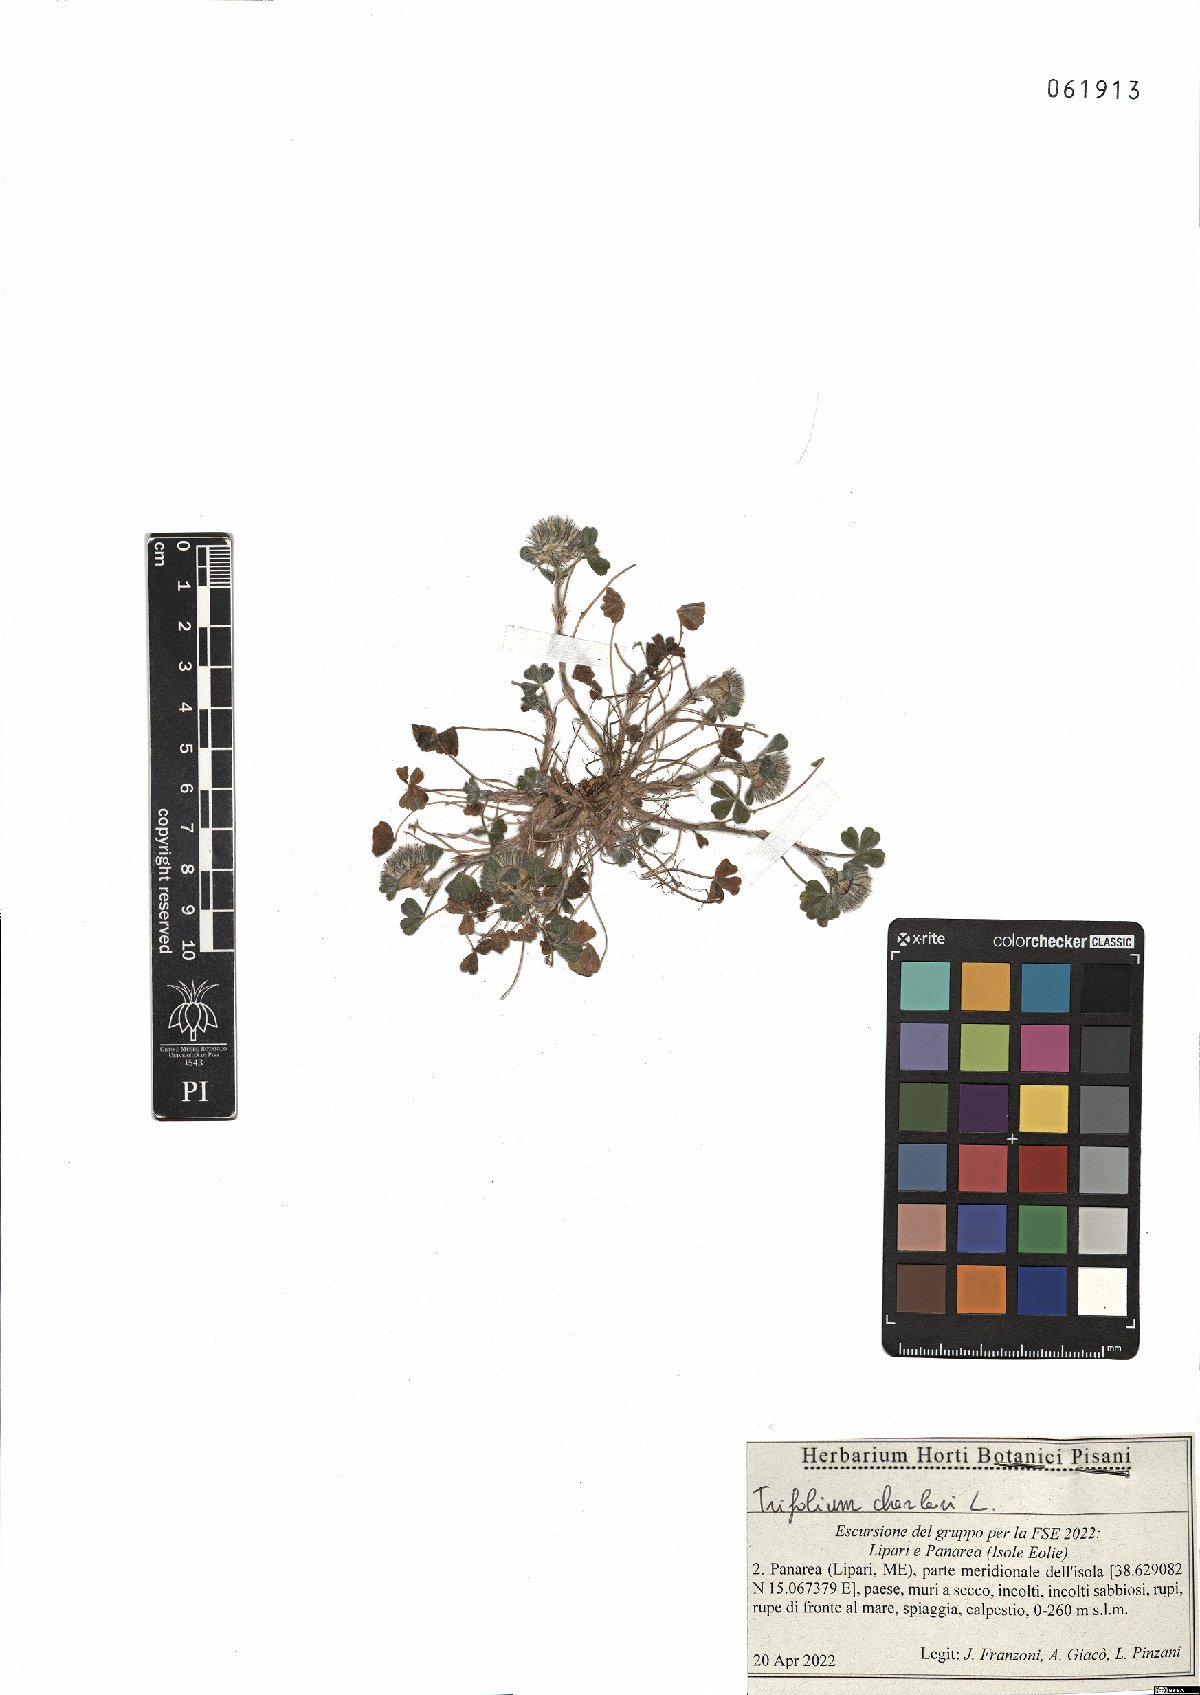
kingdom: Plantae
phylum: Tracheophyta
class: Magnoliopsida
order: Fabales
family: Fabaceae
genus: Trifolium
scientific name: Trifolium cherleri
